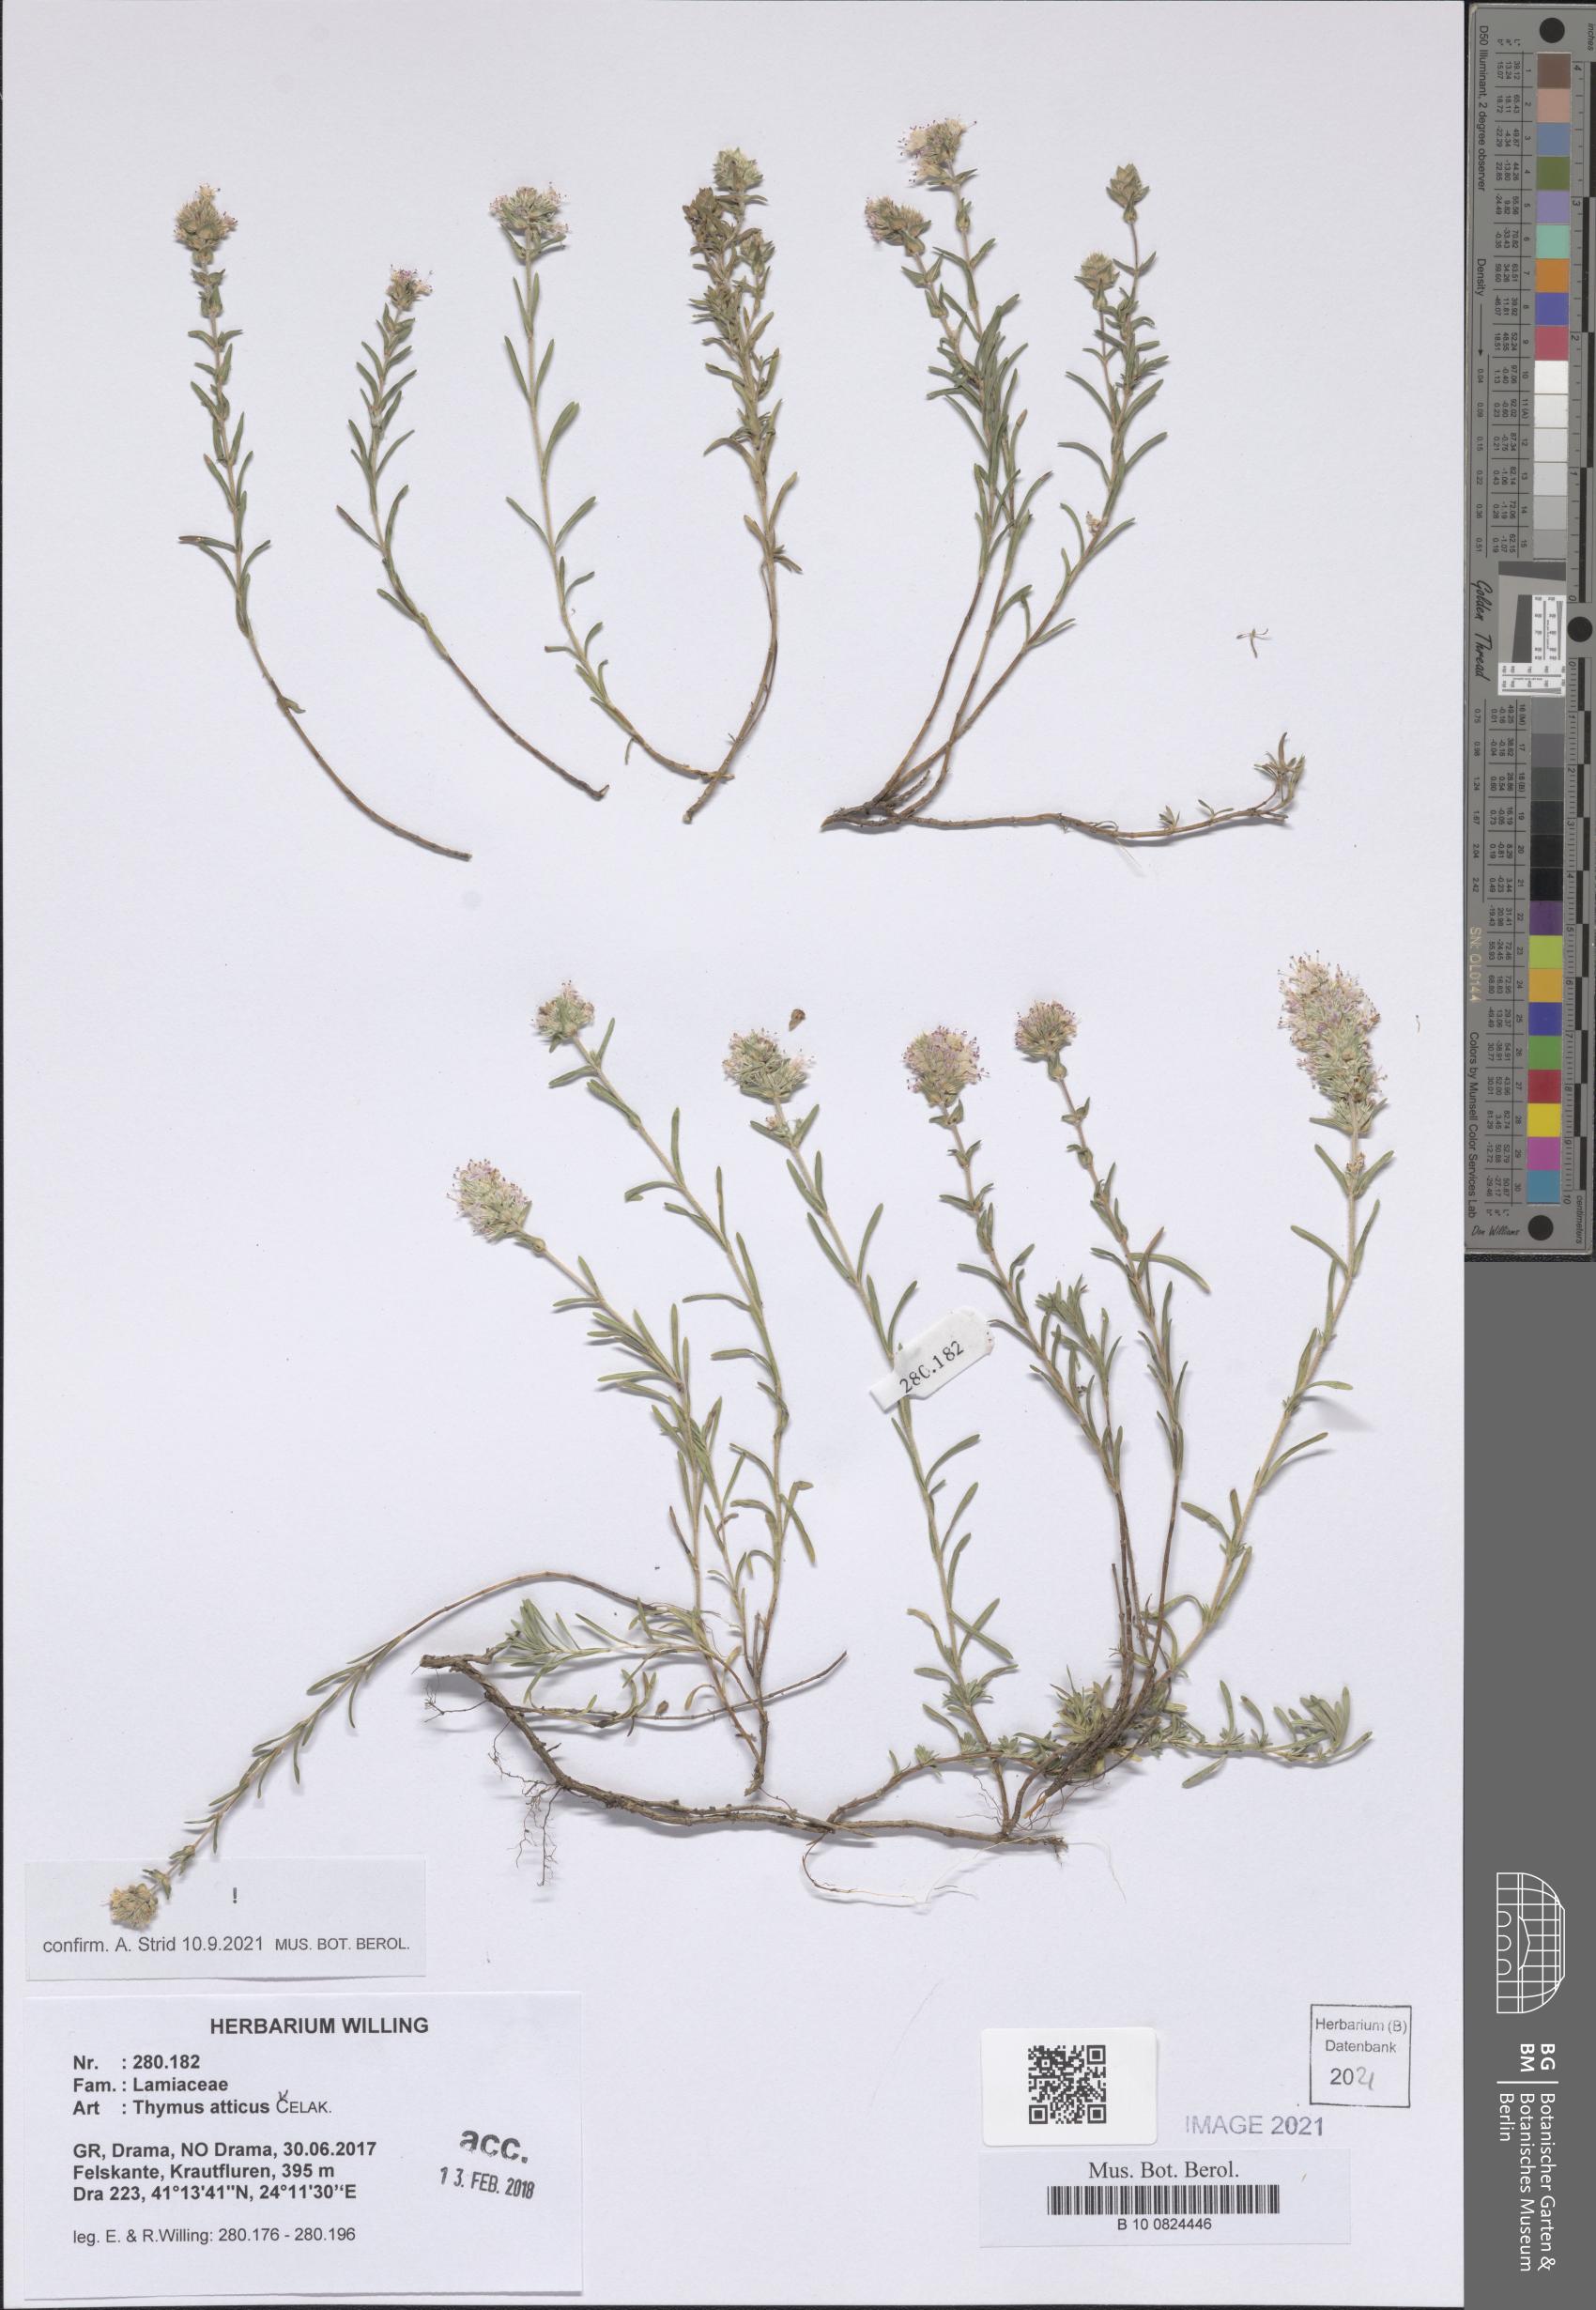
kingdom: Plantae
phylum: Tracheophyta
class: Magnoliopsida
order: Lamiales
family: Lamiaceae
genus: Thymus
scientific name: Thymus atticus
